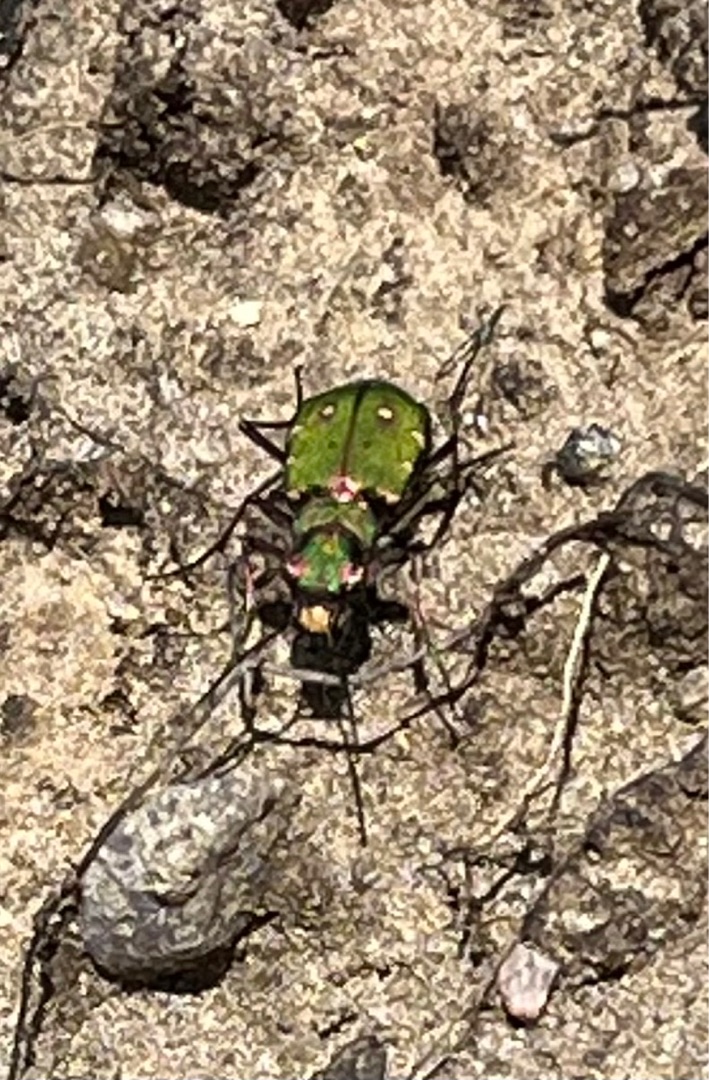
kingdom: Animalia
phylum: Arthropoda
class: Insecta
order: Coleoptera
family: Carabidae
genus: Cicindela
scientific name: Cicindela campestris
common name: Grøn sandspringer
